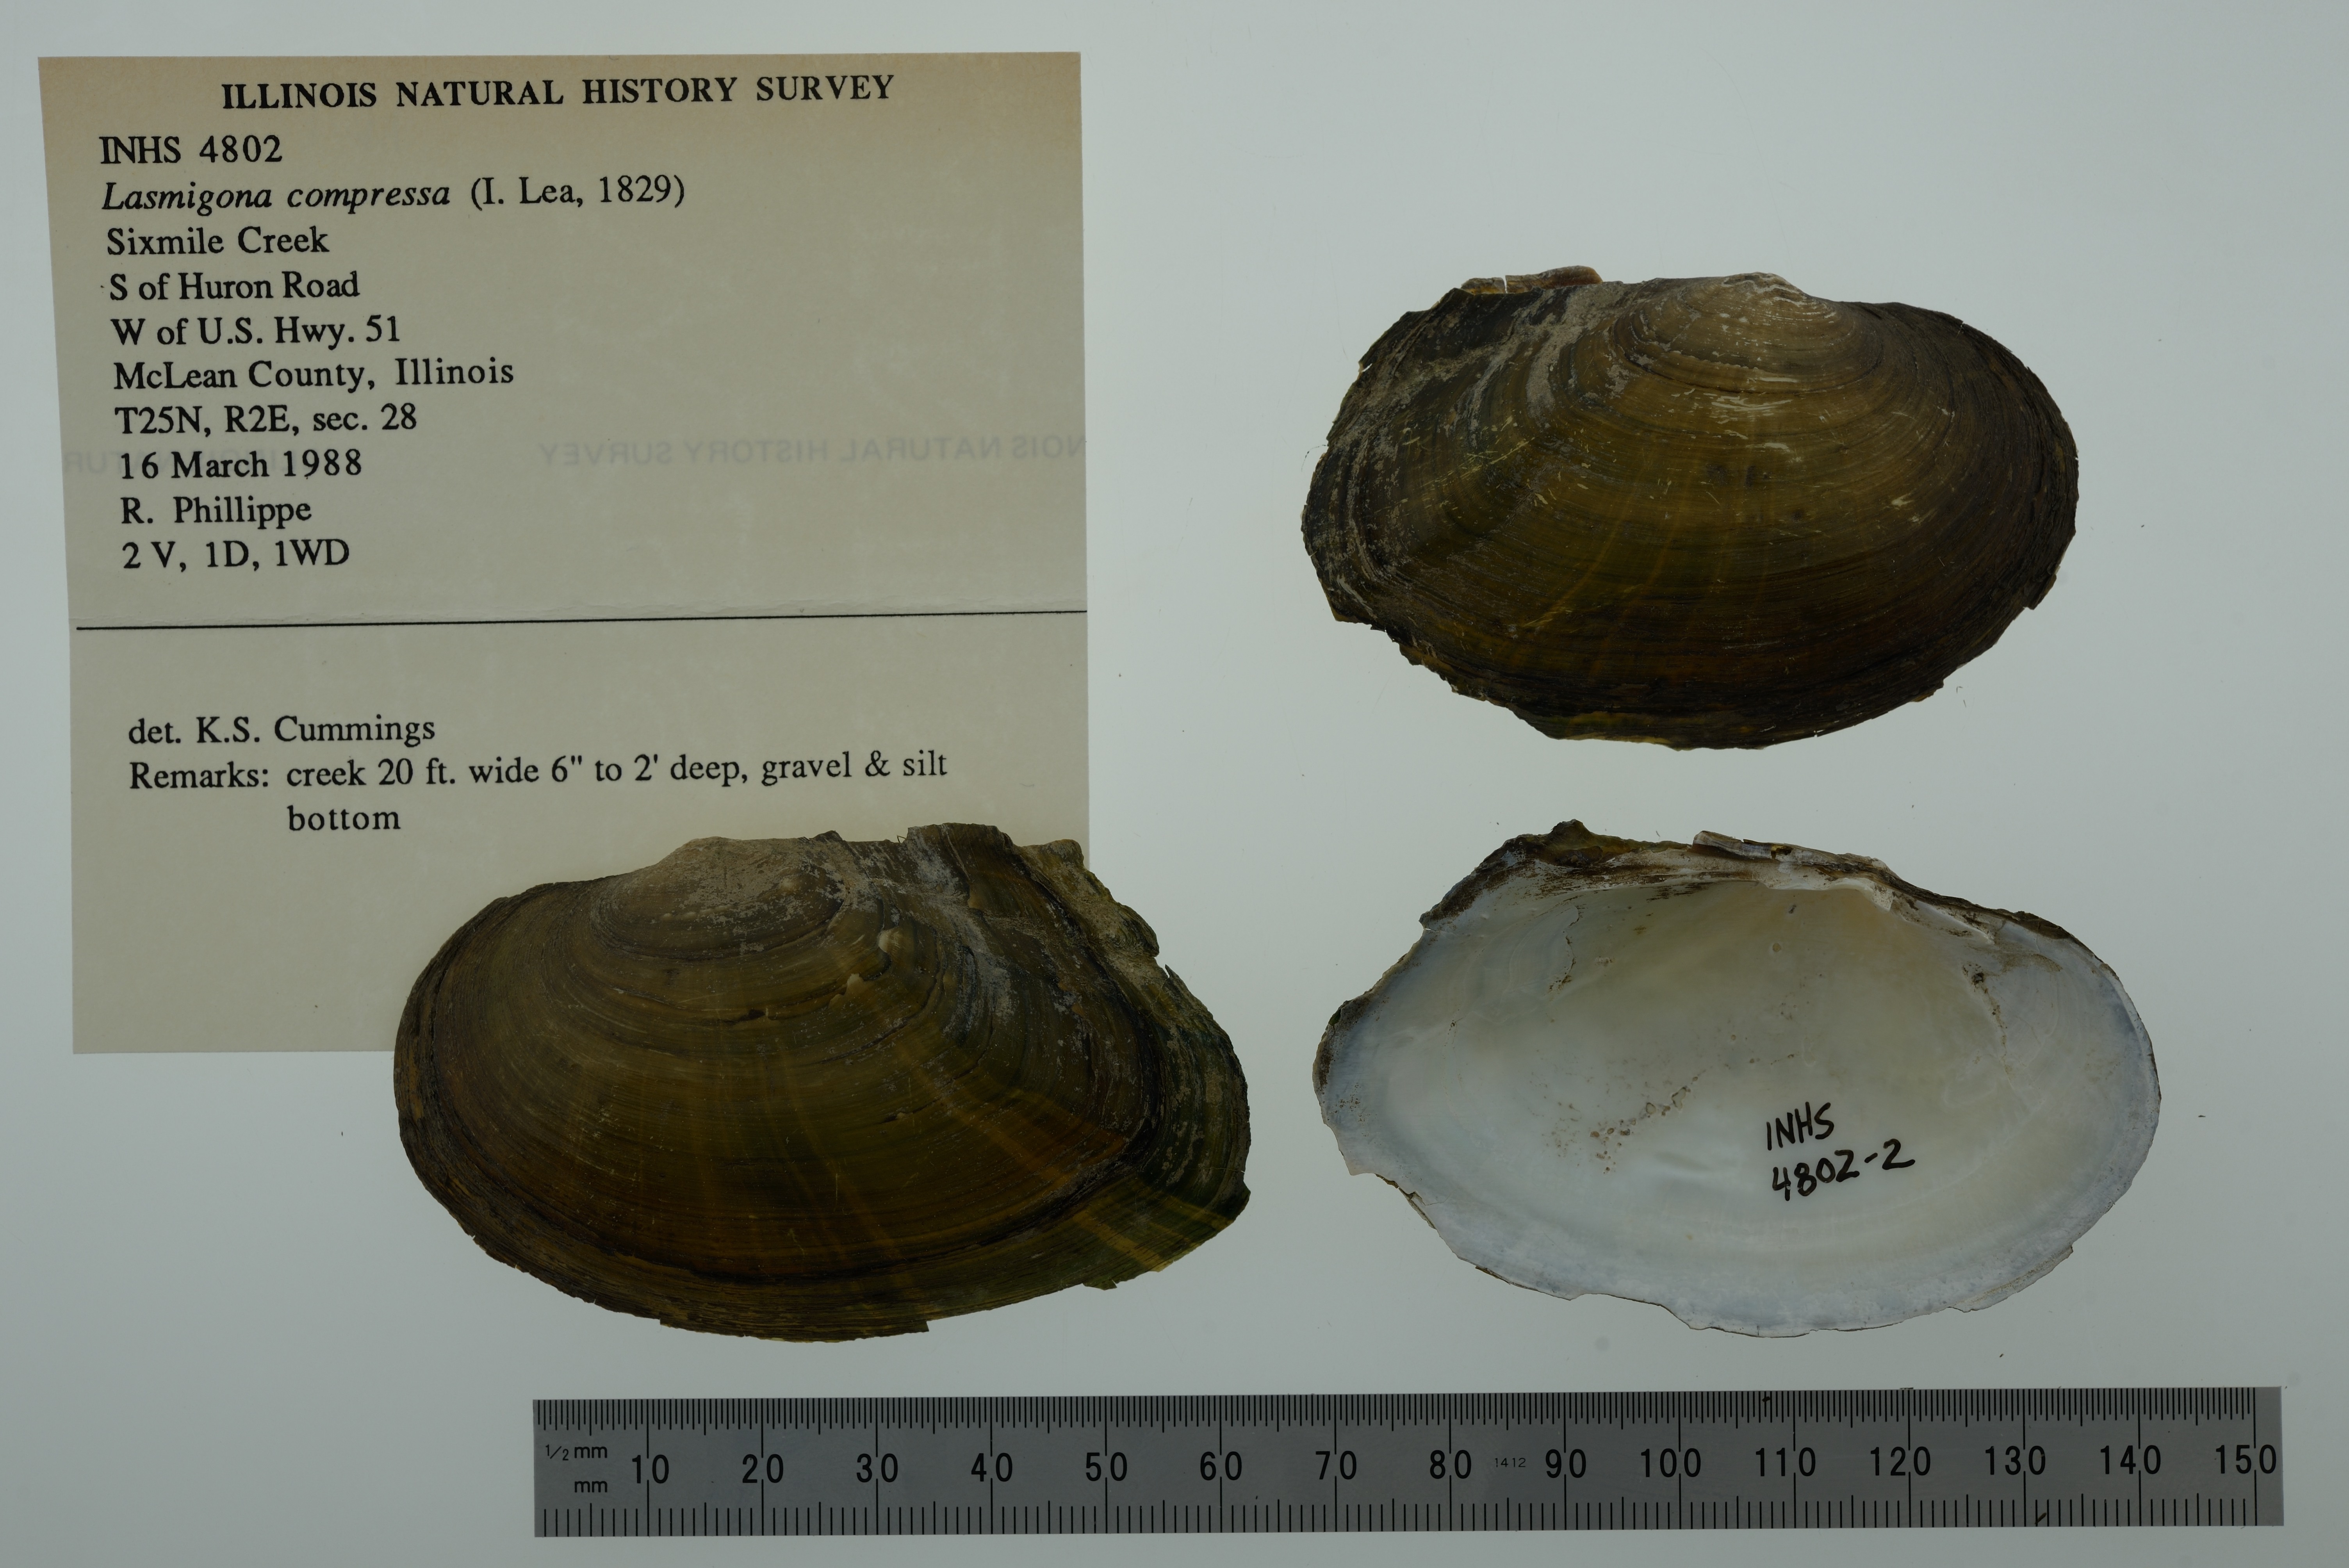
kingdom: Animalia
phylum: Mollusca
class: Bivalvia
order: Unionida
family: Unionidae
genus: Lasmigona
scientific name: Lasmigona compressa
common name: Creek heelsplitter
